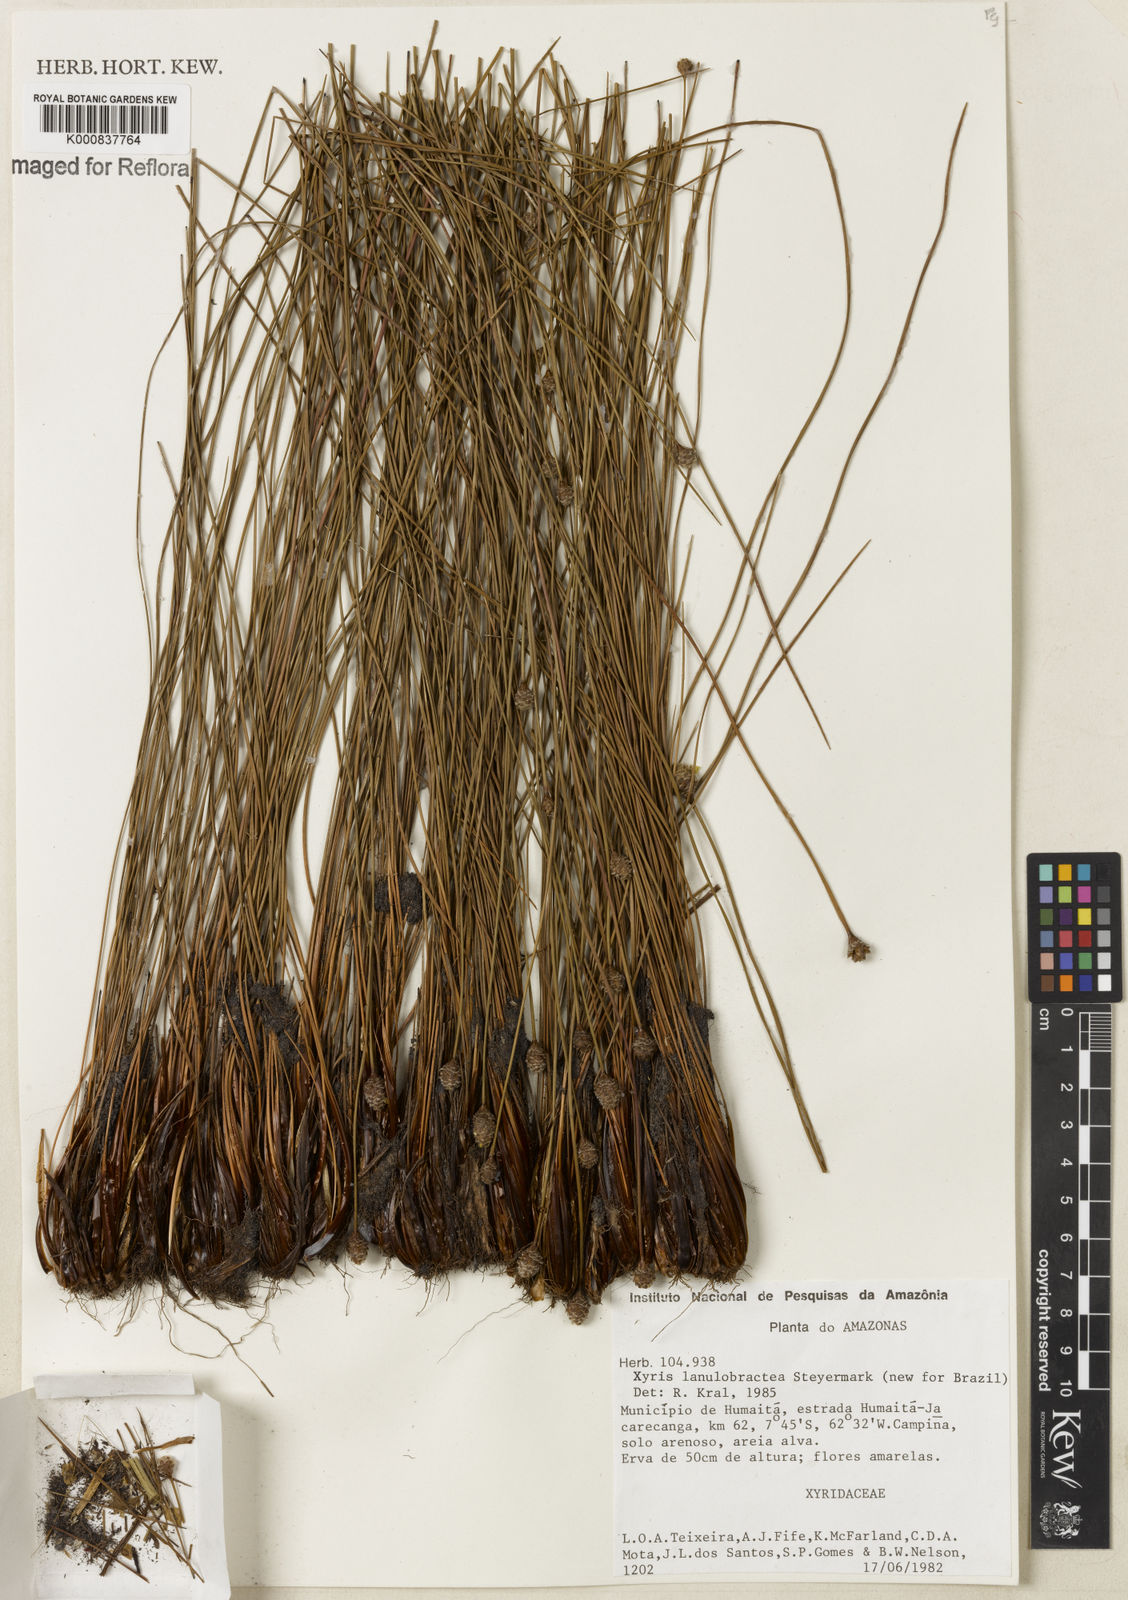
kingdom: Plantae
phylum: Tracheophyta
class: Liliopsida
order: Poales
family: Xyridaceae
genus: Xyris
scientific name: Xyris lanulobractea
